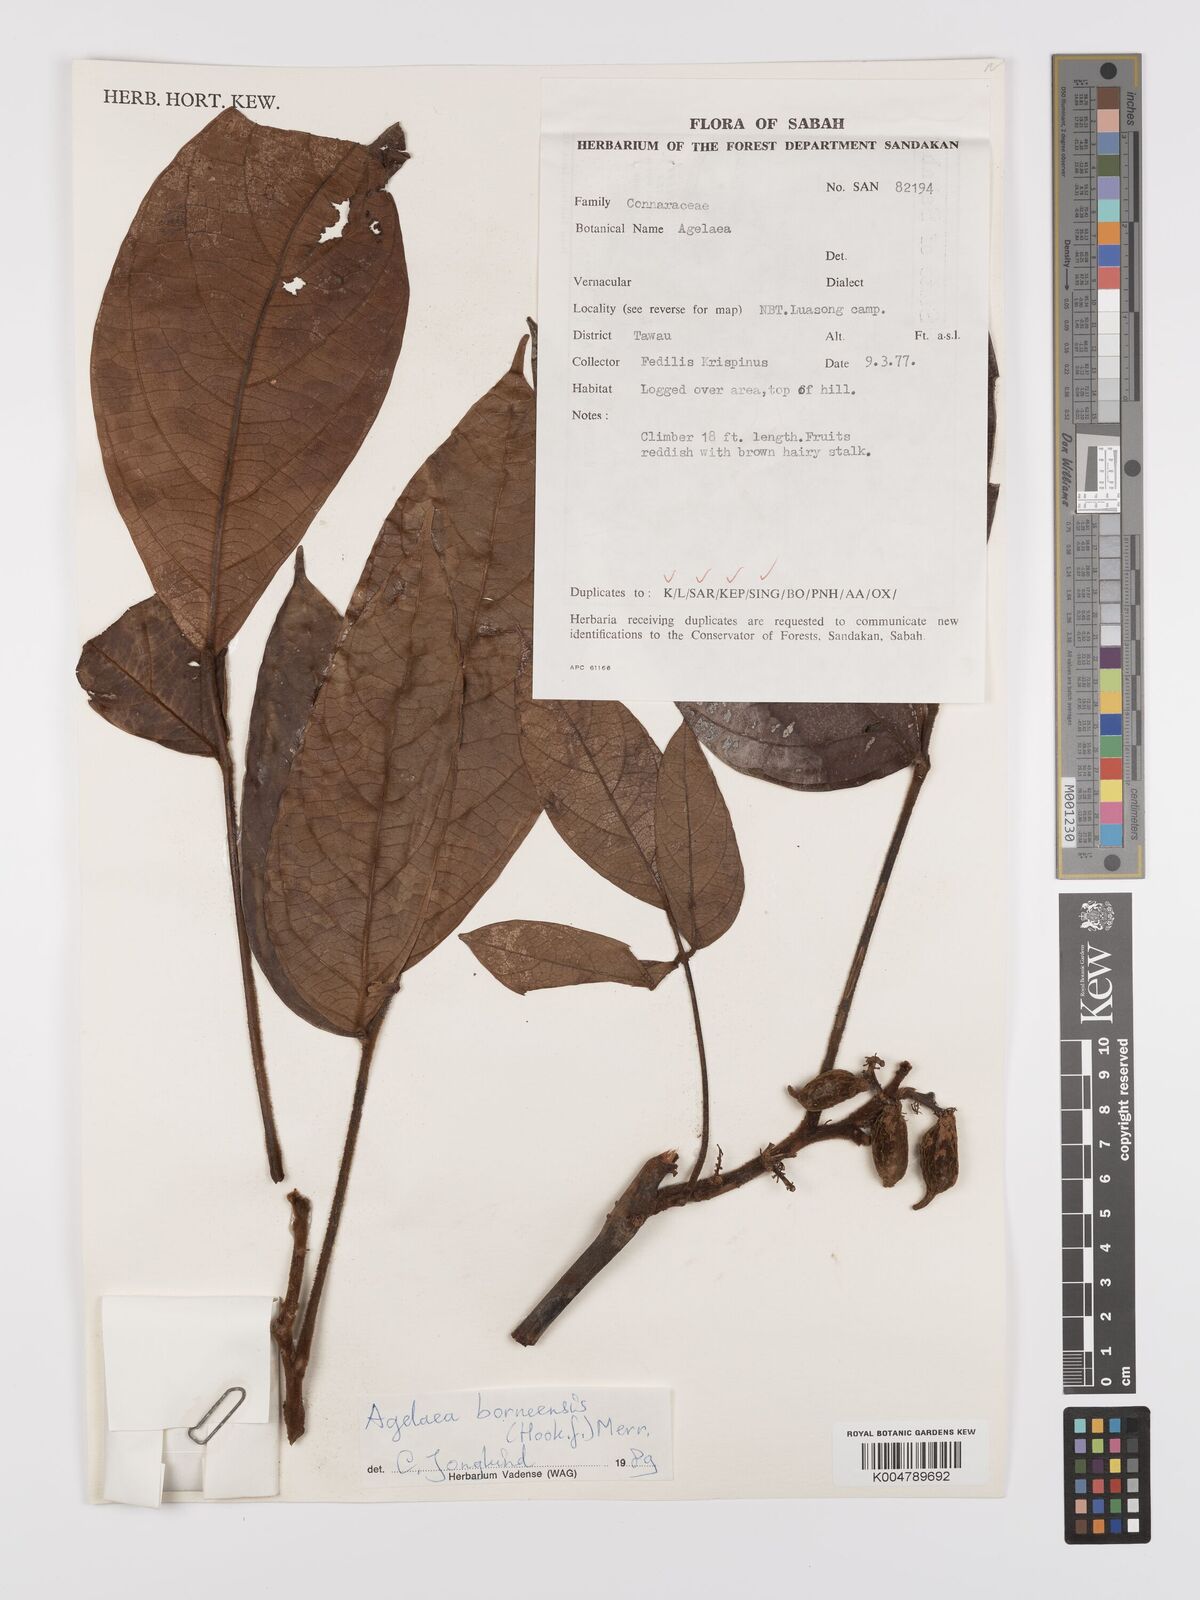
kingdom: Plantae
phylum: Tracheophyta
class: Magnoliopsida
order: Oxalidales
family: Connaraceae
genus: Agelaea
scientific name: Agelaea borneensis
